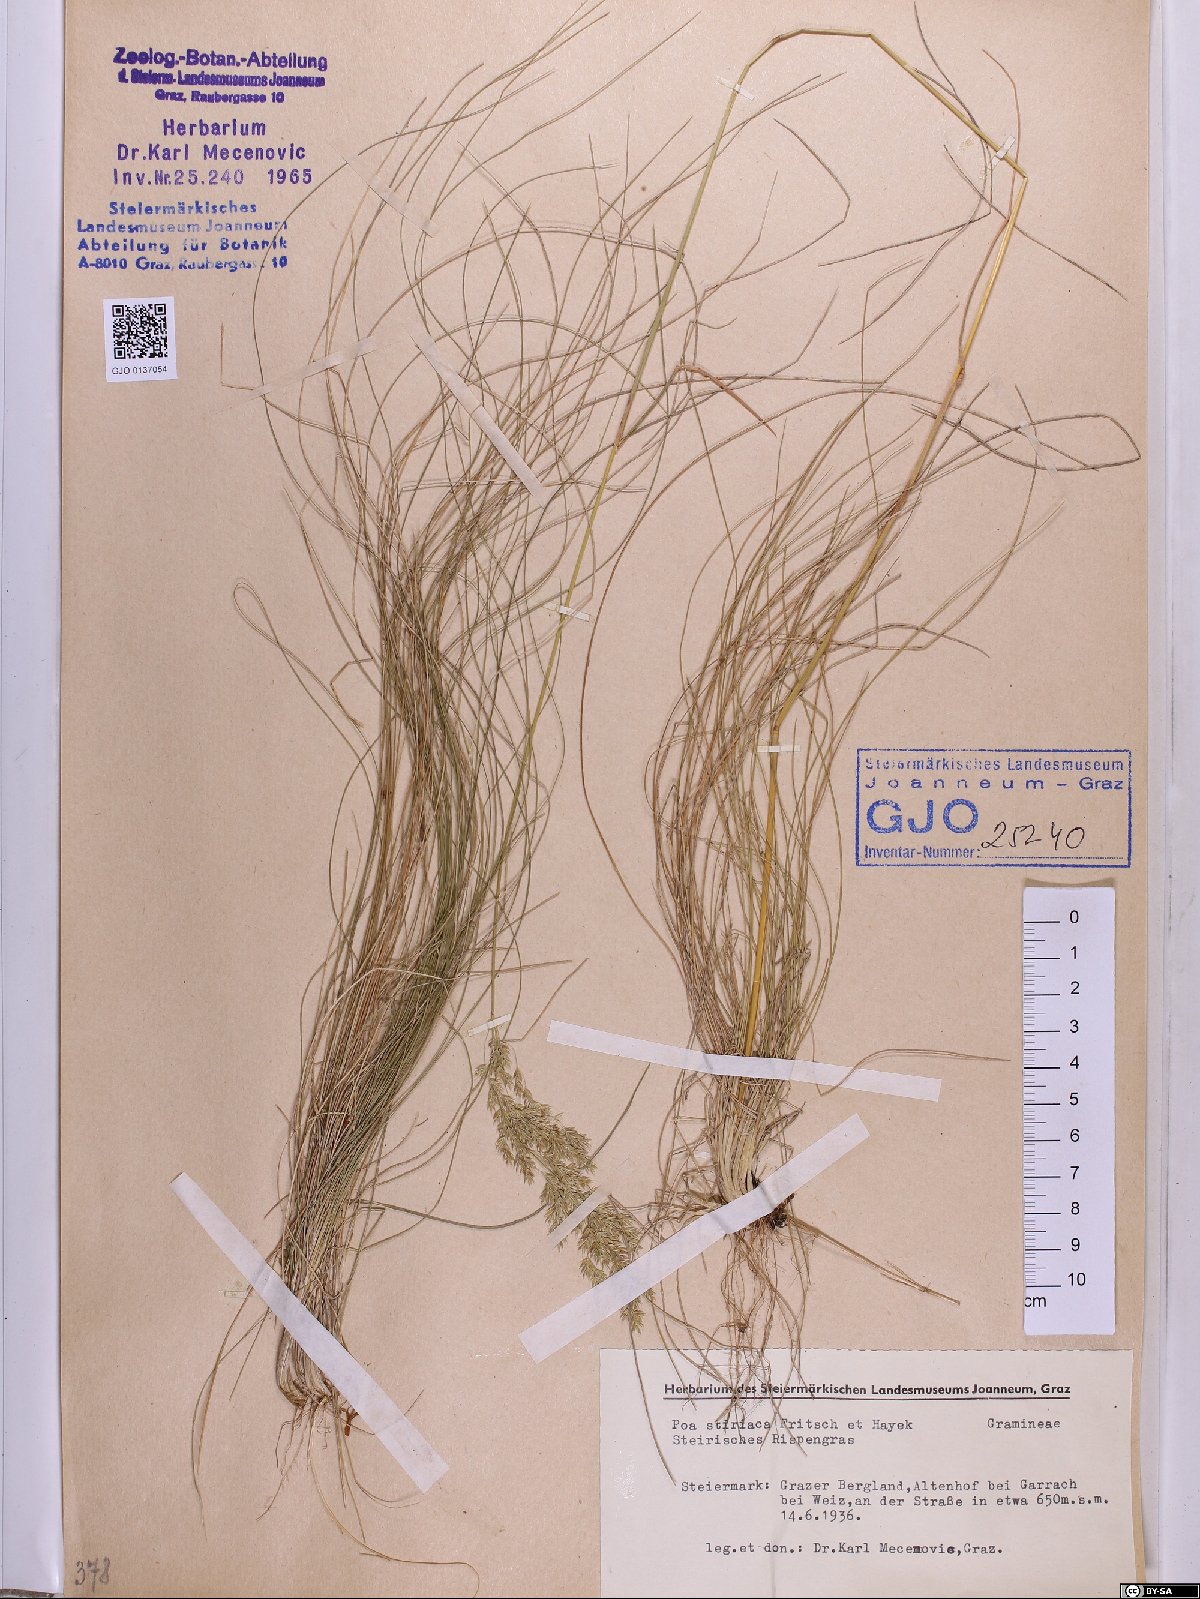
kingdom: Plantae
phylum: Tracheophyta
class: Liliopsida
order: Poales
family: Poaceae
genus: Poa
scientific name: Poa stiriaca
